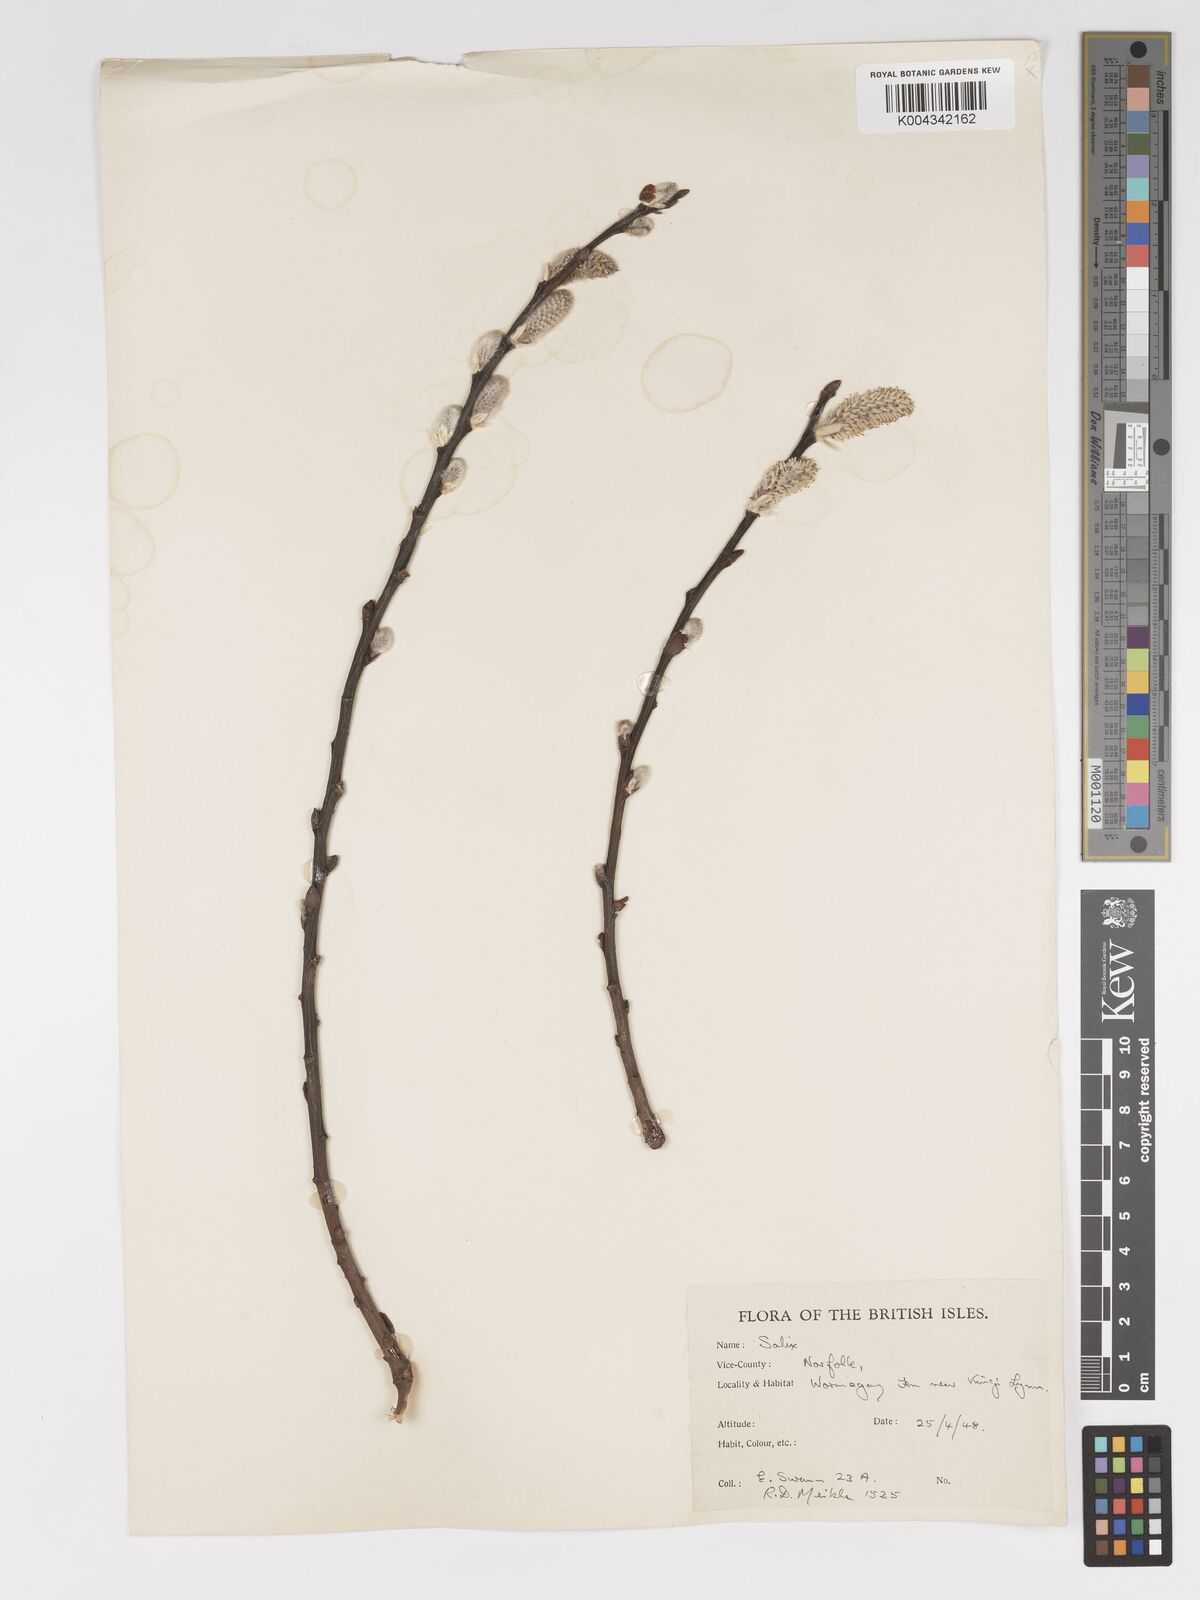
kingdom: Plantae
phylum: Tracheophyta
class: Magnoliopsida
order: Malpighiales
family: Salicaceae
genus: Salix
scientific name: Salix
